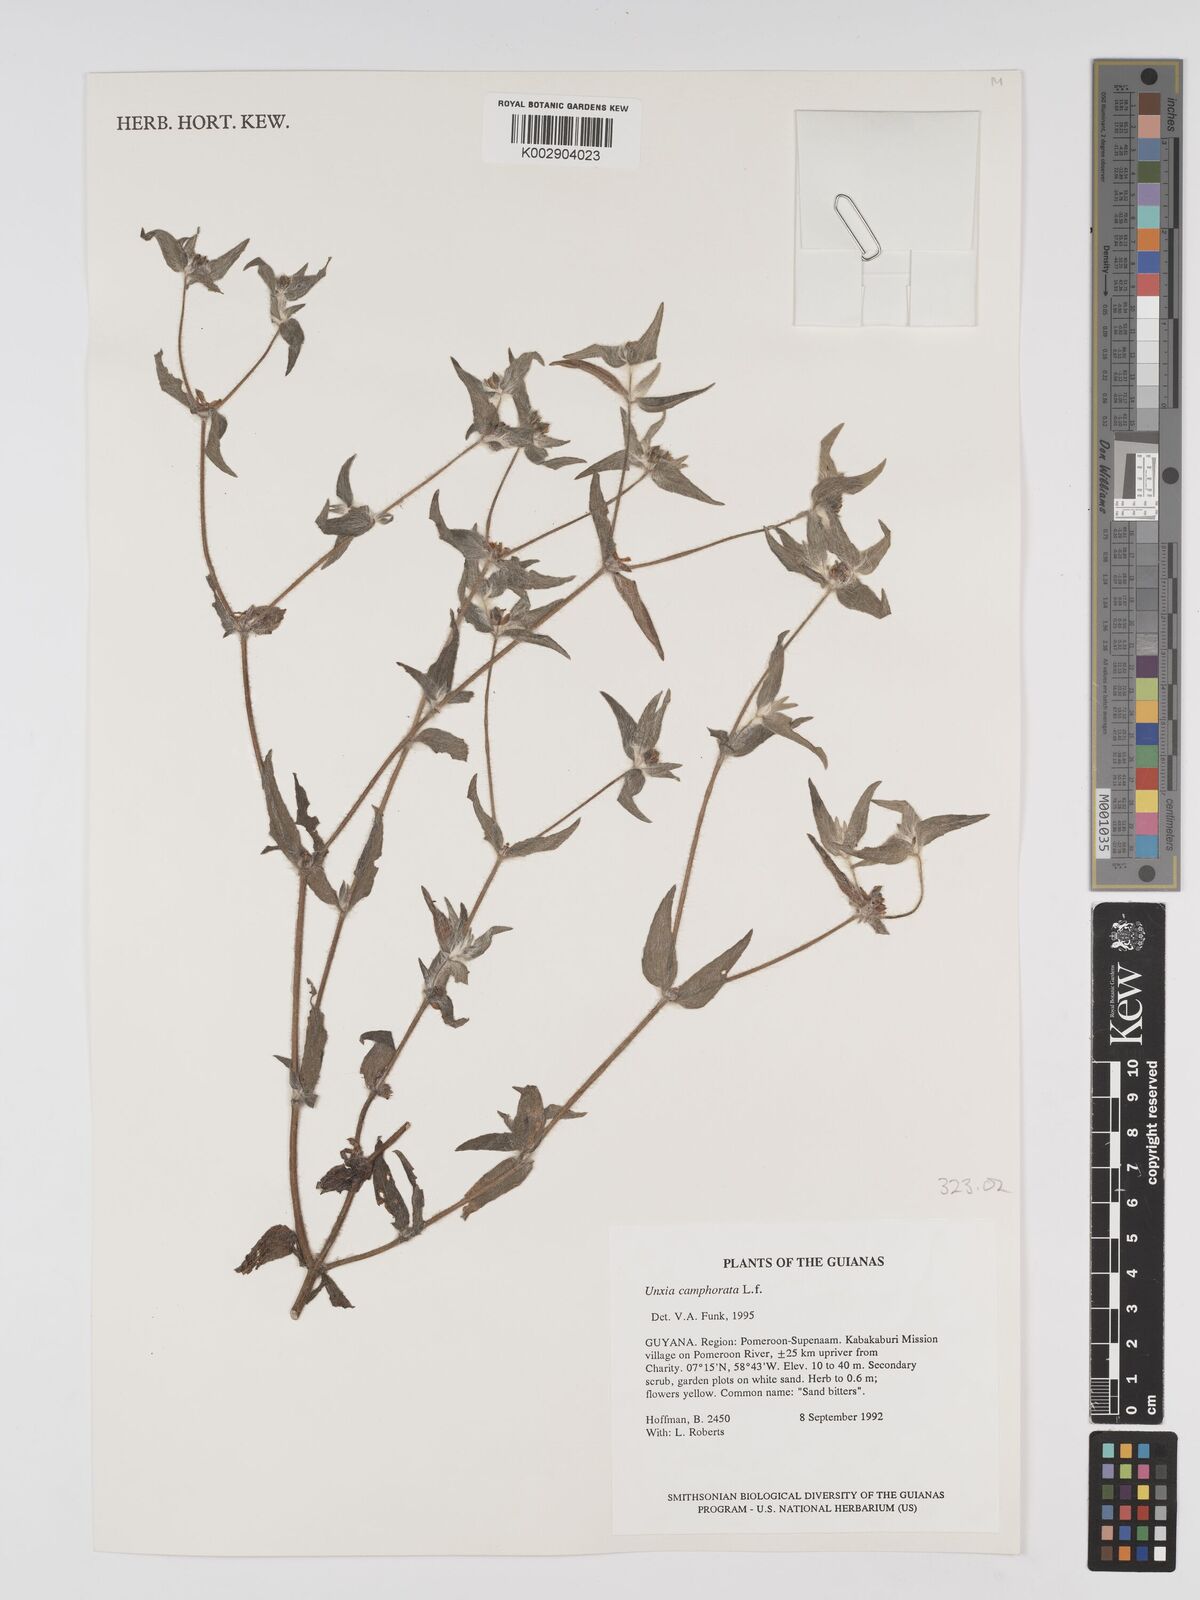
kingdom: Plantae
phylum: Tracheophyta
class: Magnoliopsida
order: Asterales
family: Asteraceae
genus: Unxia
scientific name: Unxia camphorata
